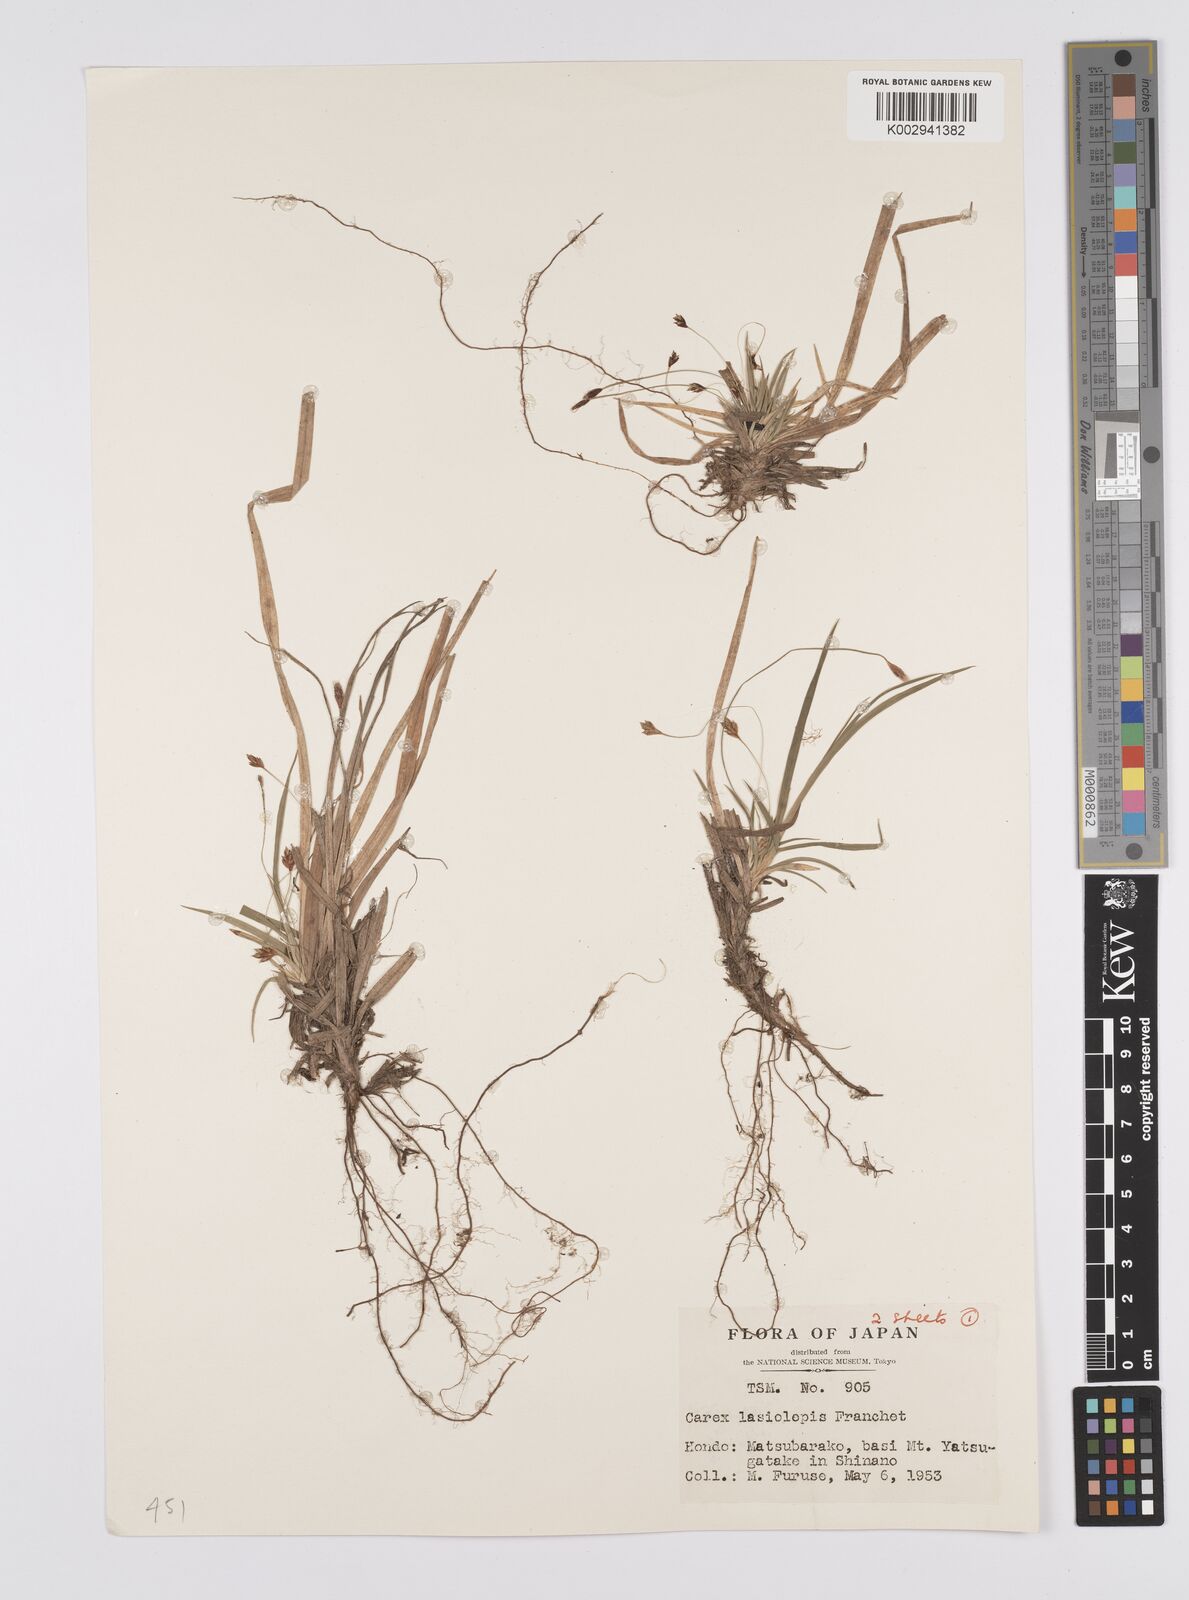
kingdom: Plantae
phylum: Tracheophyta
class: Liliopsida
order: Poales
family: Cyperaceae
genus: Carex
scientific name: Carex lasiolepis
